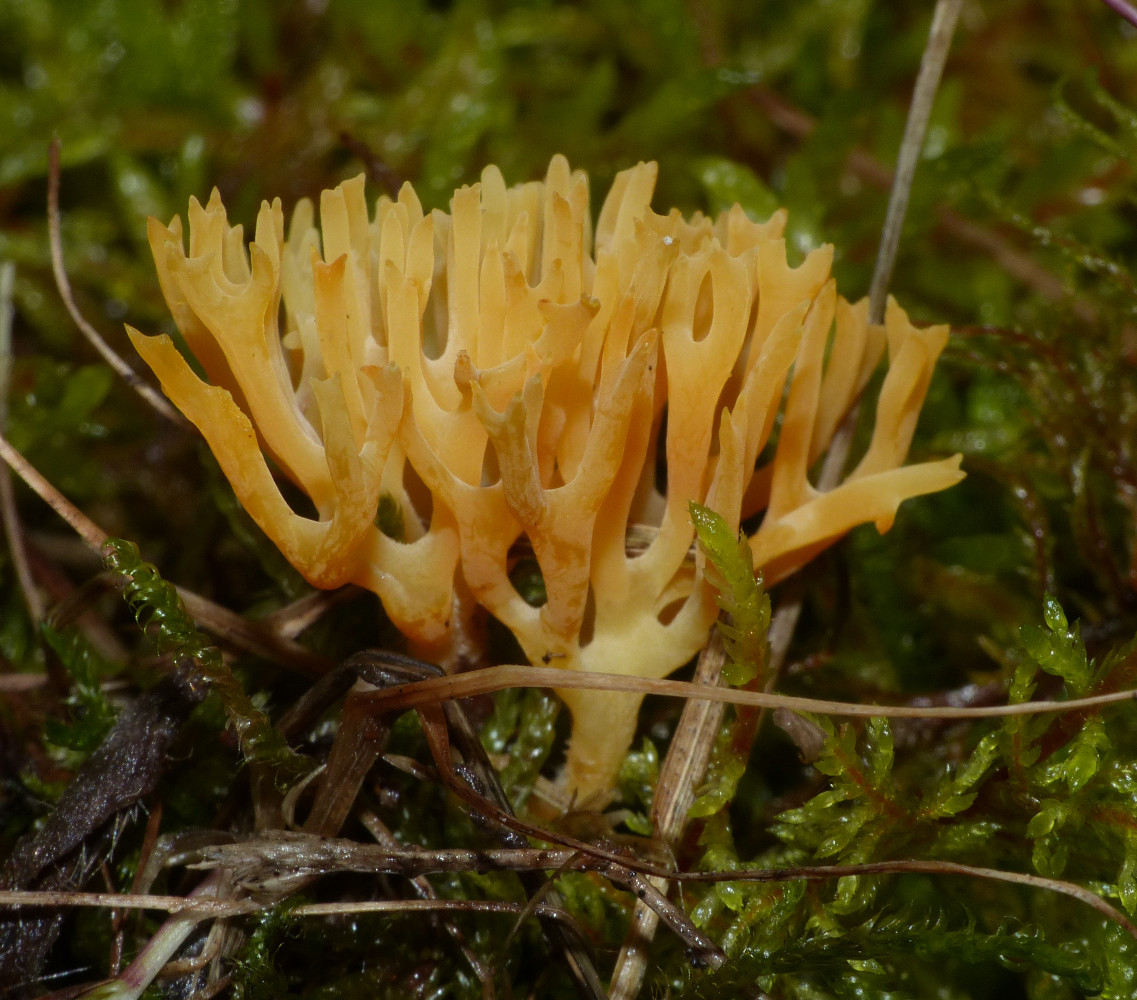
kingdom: Fungi
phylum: Basidiomycota
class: Agaricomycetes
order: Agaricales
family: Clavariaceae
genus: Clavulinopsis
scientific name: Clavulinopsis corniculata
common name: eng-køllesvamp
